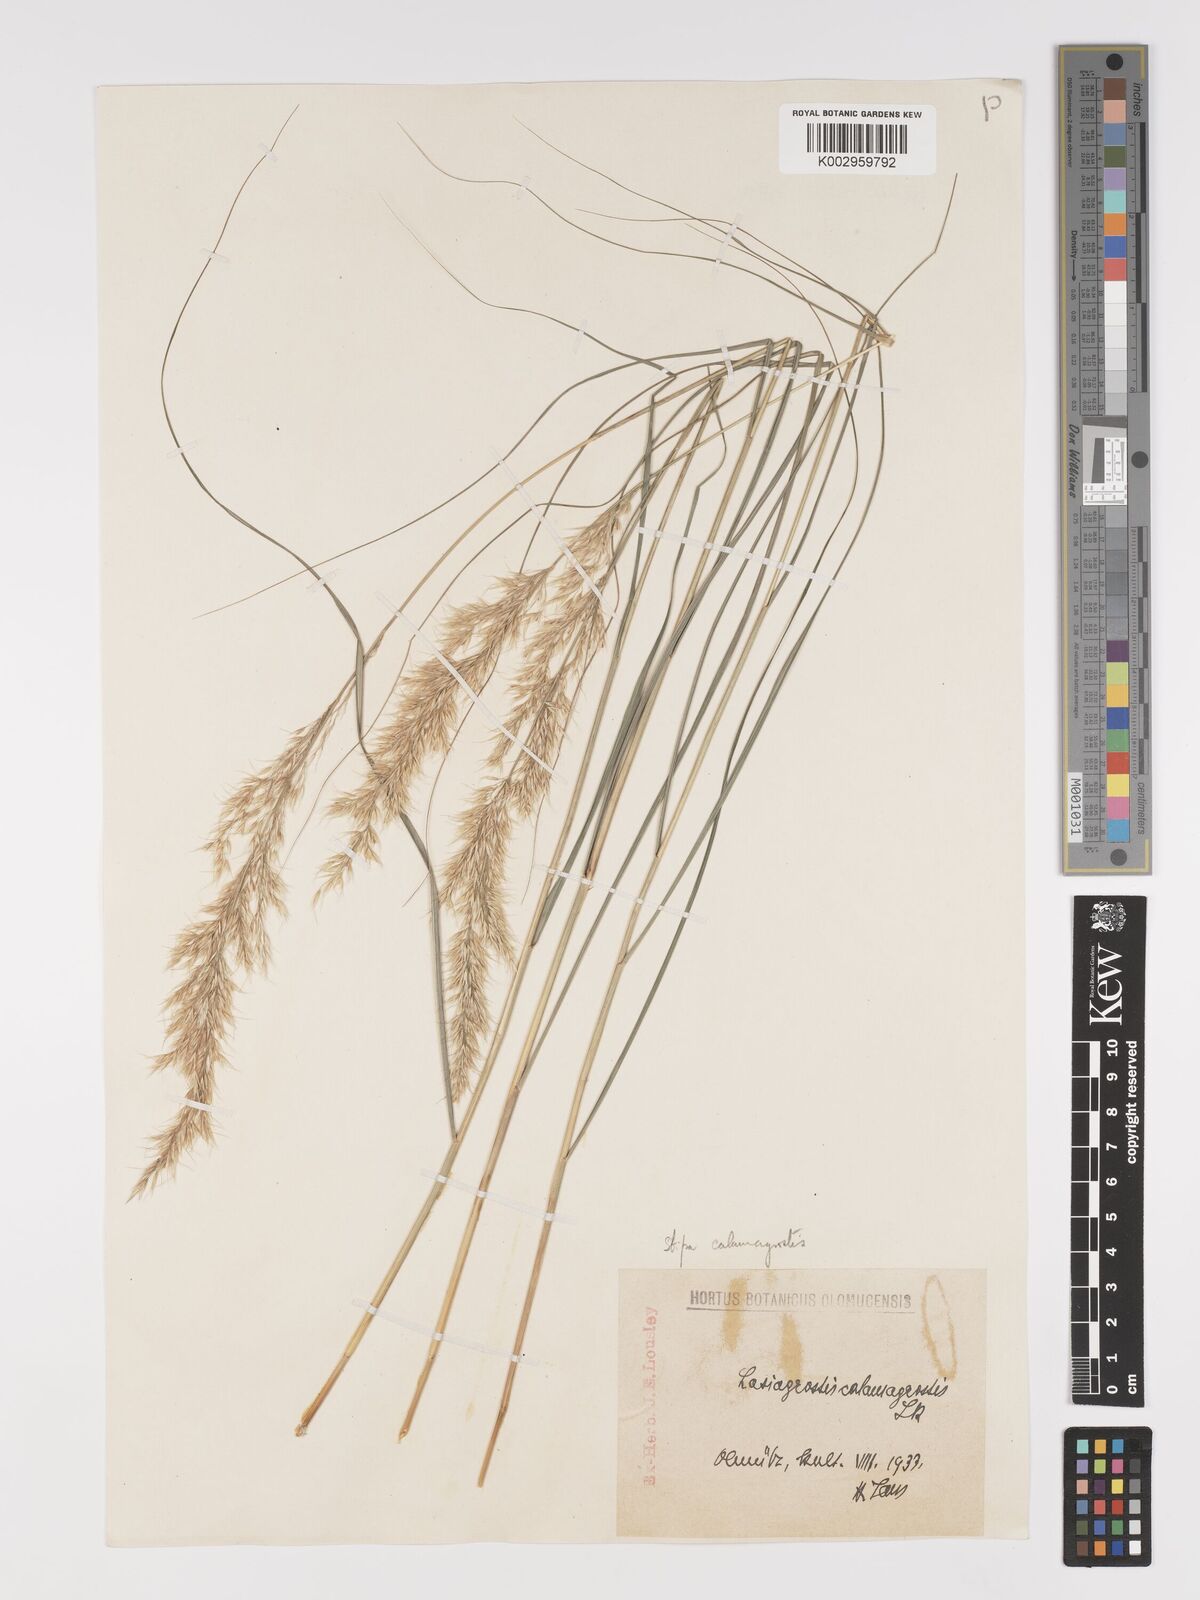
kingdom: Plantae
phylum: Tracheophyta
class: Liliopsida
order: Poales
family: Poaceae
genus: Achnatherum
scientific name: Achnatherum calamagrostis
